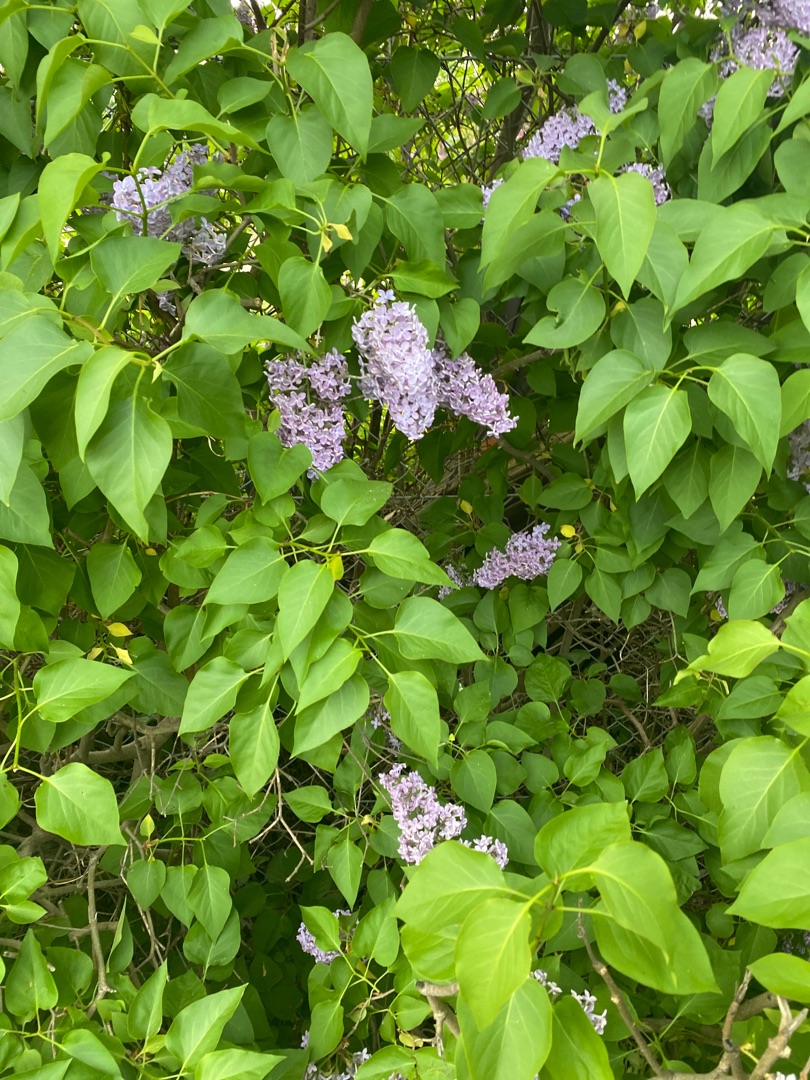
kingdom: Plantae
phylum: Tracheophyta
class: Magnoliopsida
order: Lamiales
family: Oleaceae
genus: Syringa
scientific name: Syringa vulgaris
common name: Syren
